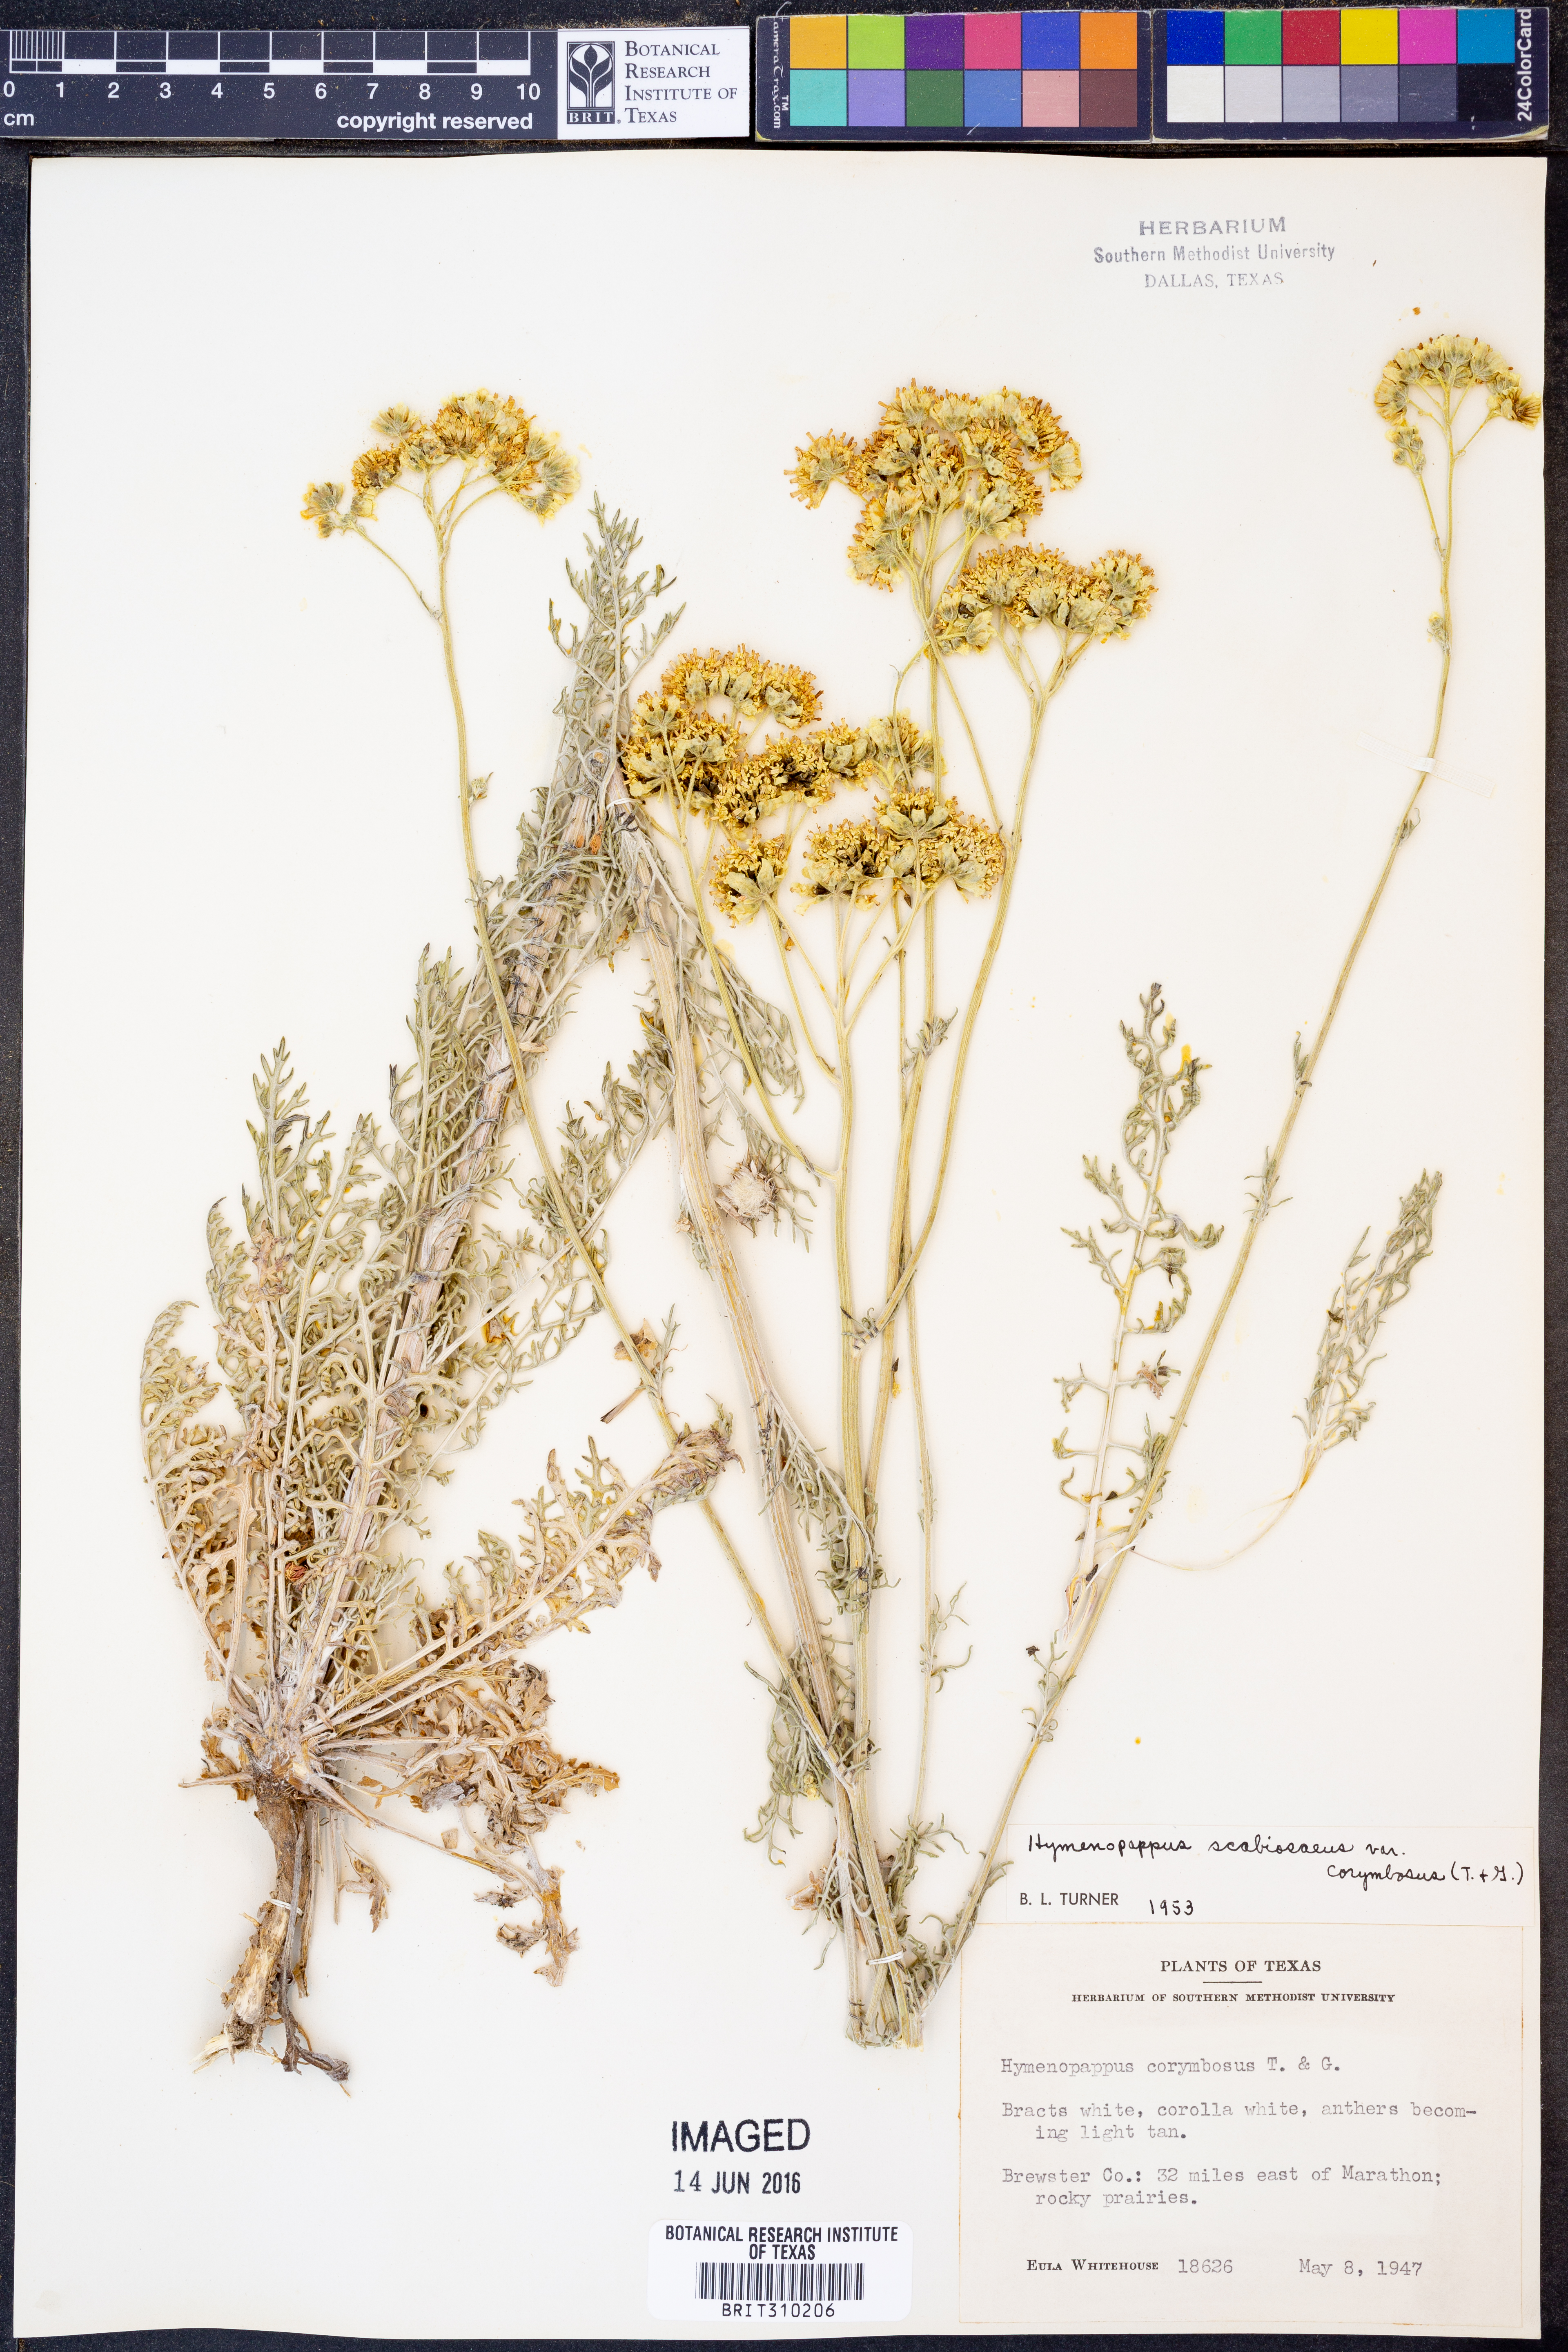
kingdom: Plantae
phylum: Tracheophyta
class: Magnoliopsida
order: Asterales
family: Asteraceae
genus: Hymenopappus
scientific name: Hymenopappus scabiosaeus
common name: Carolina woollywhite
